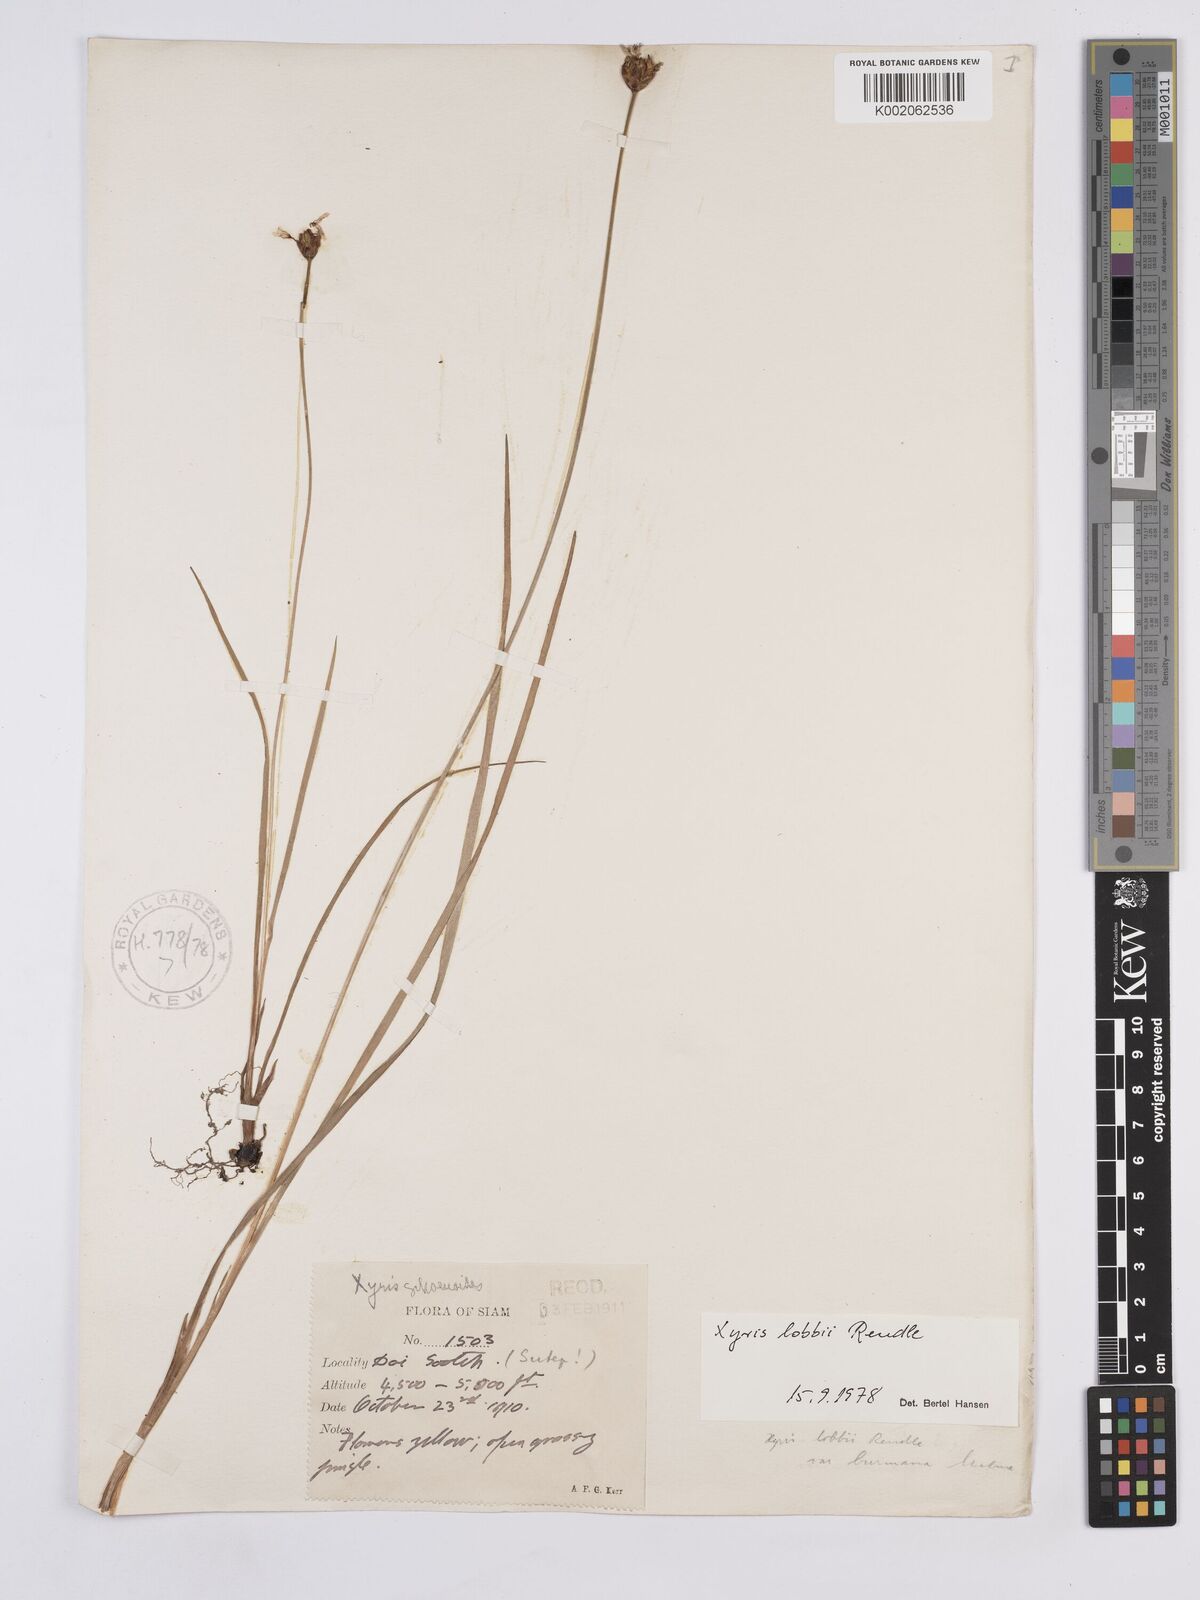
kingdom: Plantae
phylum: Tracheophyta
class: Liliopsida
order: Poales
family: Xyridaceae
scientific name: Xyridaceae
